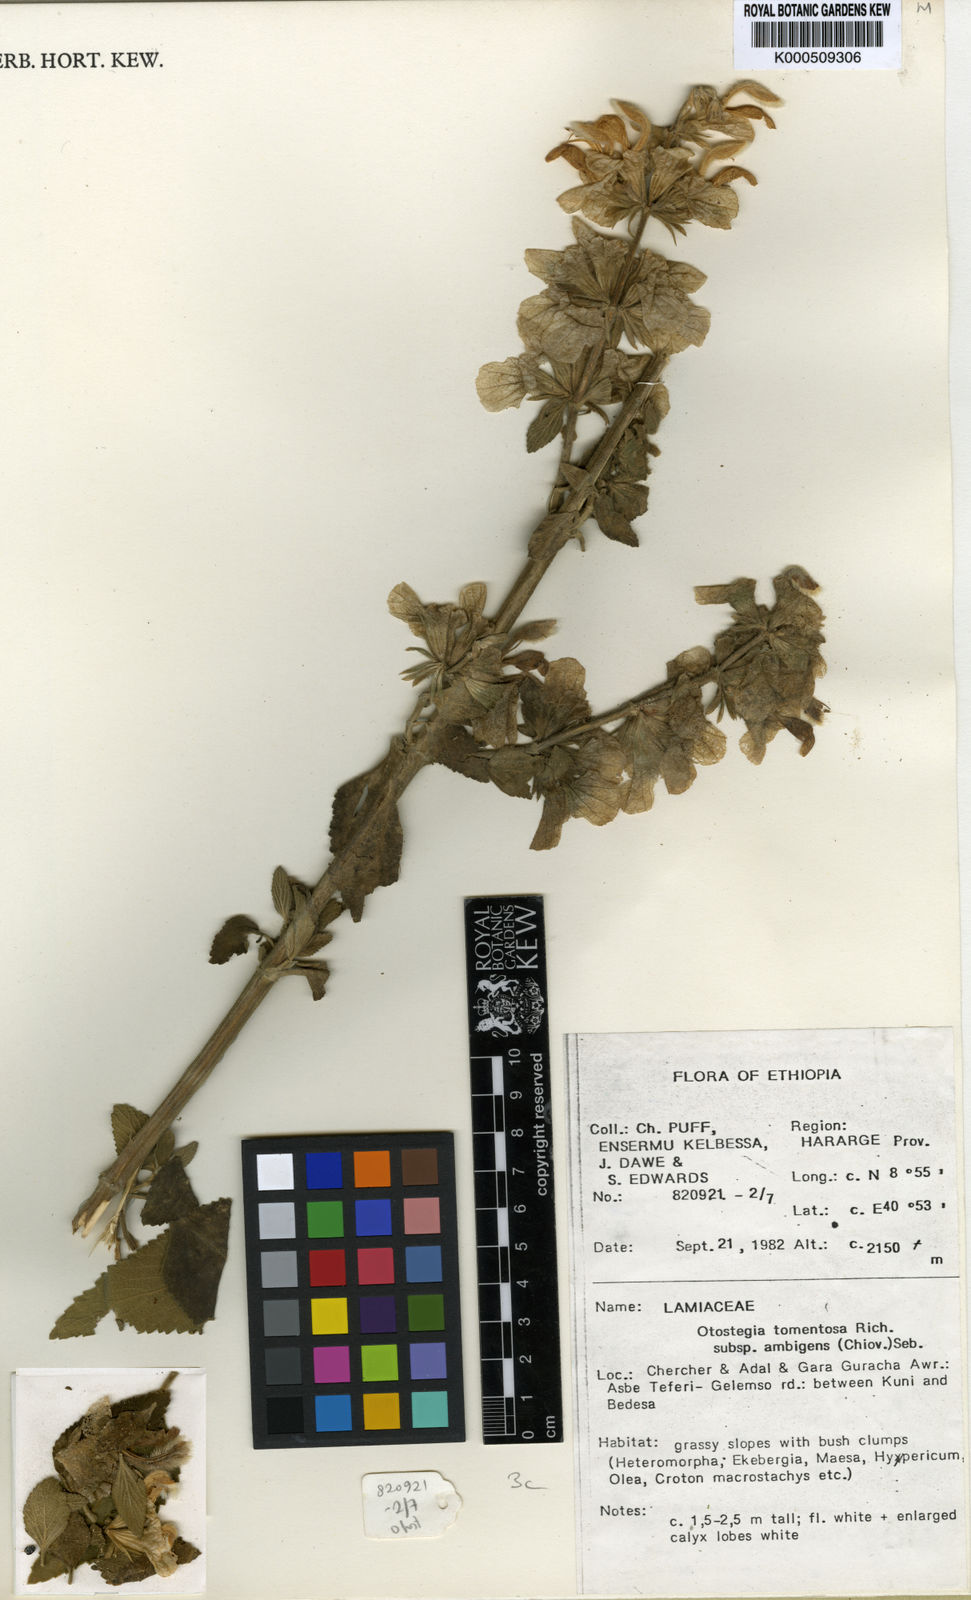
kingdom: Plantae
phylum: Tracheophyta
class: Magnoliopsida
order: Lamiales
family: Lamiaceae
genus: Otostegia
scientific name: Otostegia tomentosa
